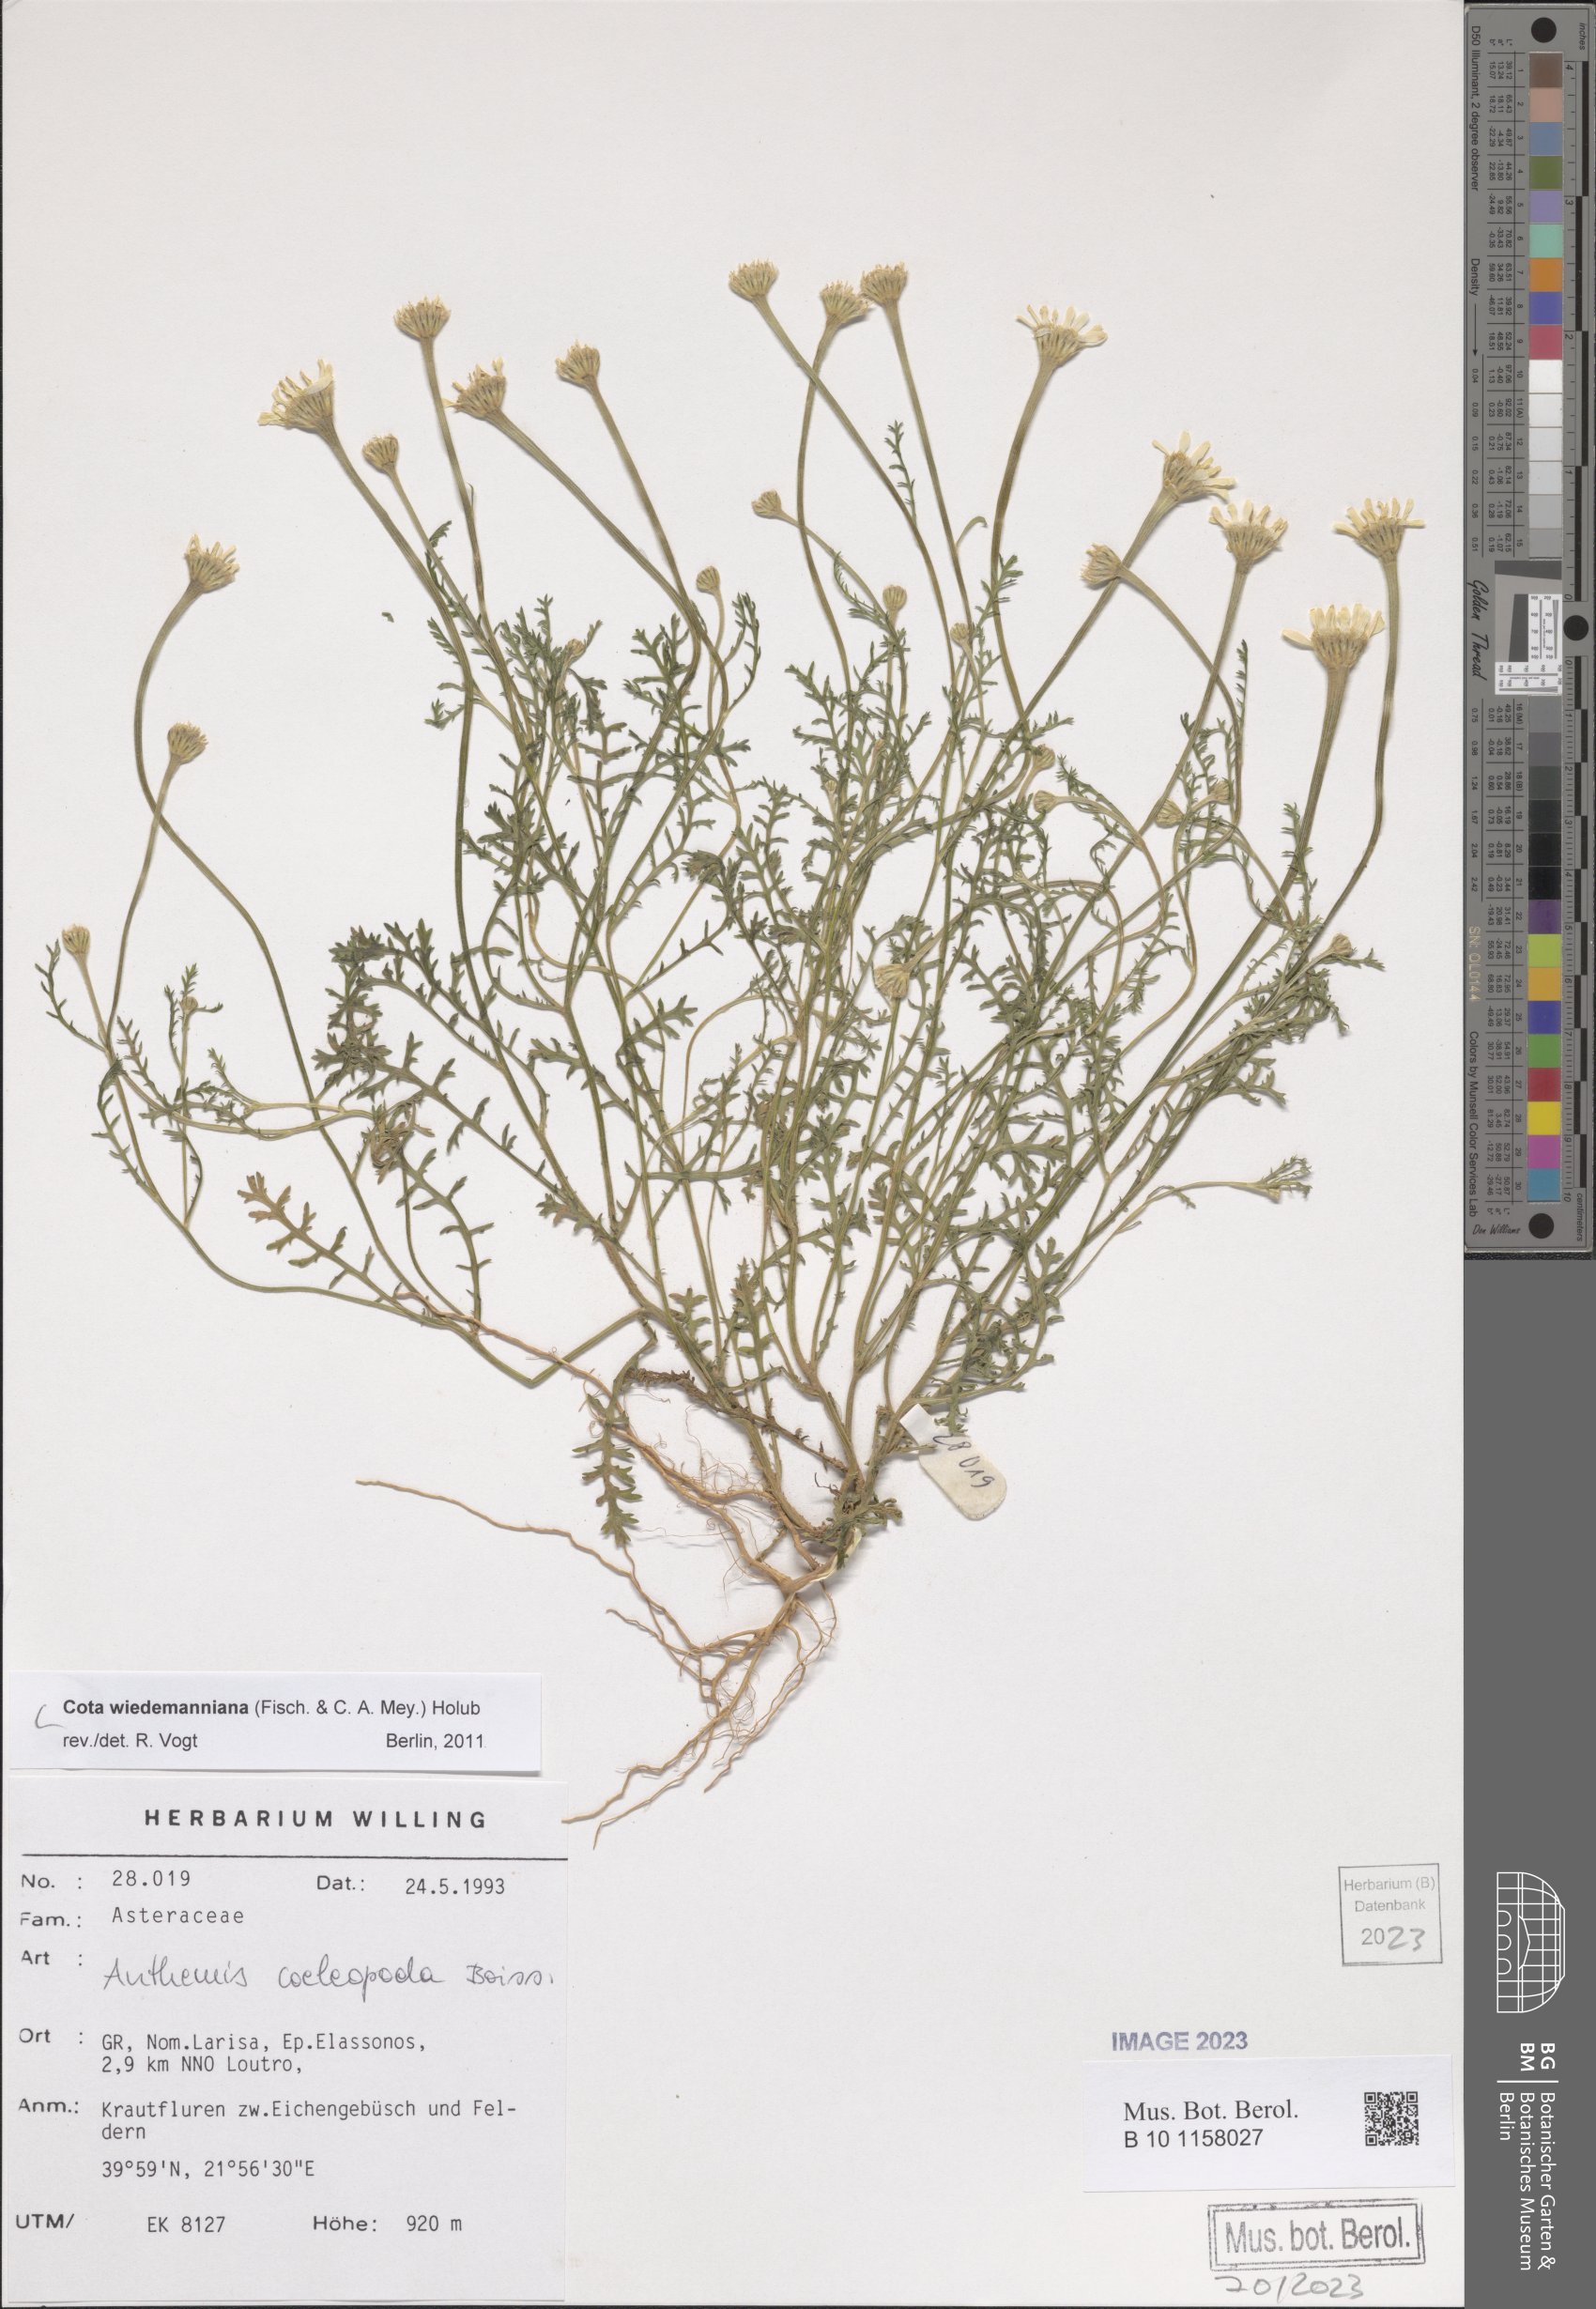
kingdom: Plantae
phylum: Tracheophyta
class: Magnoliopsida
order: Asterales
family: Asteraceae
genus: Cota
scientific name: Cota wiedemanniana
